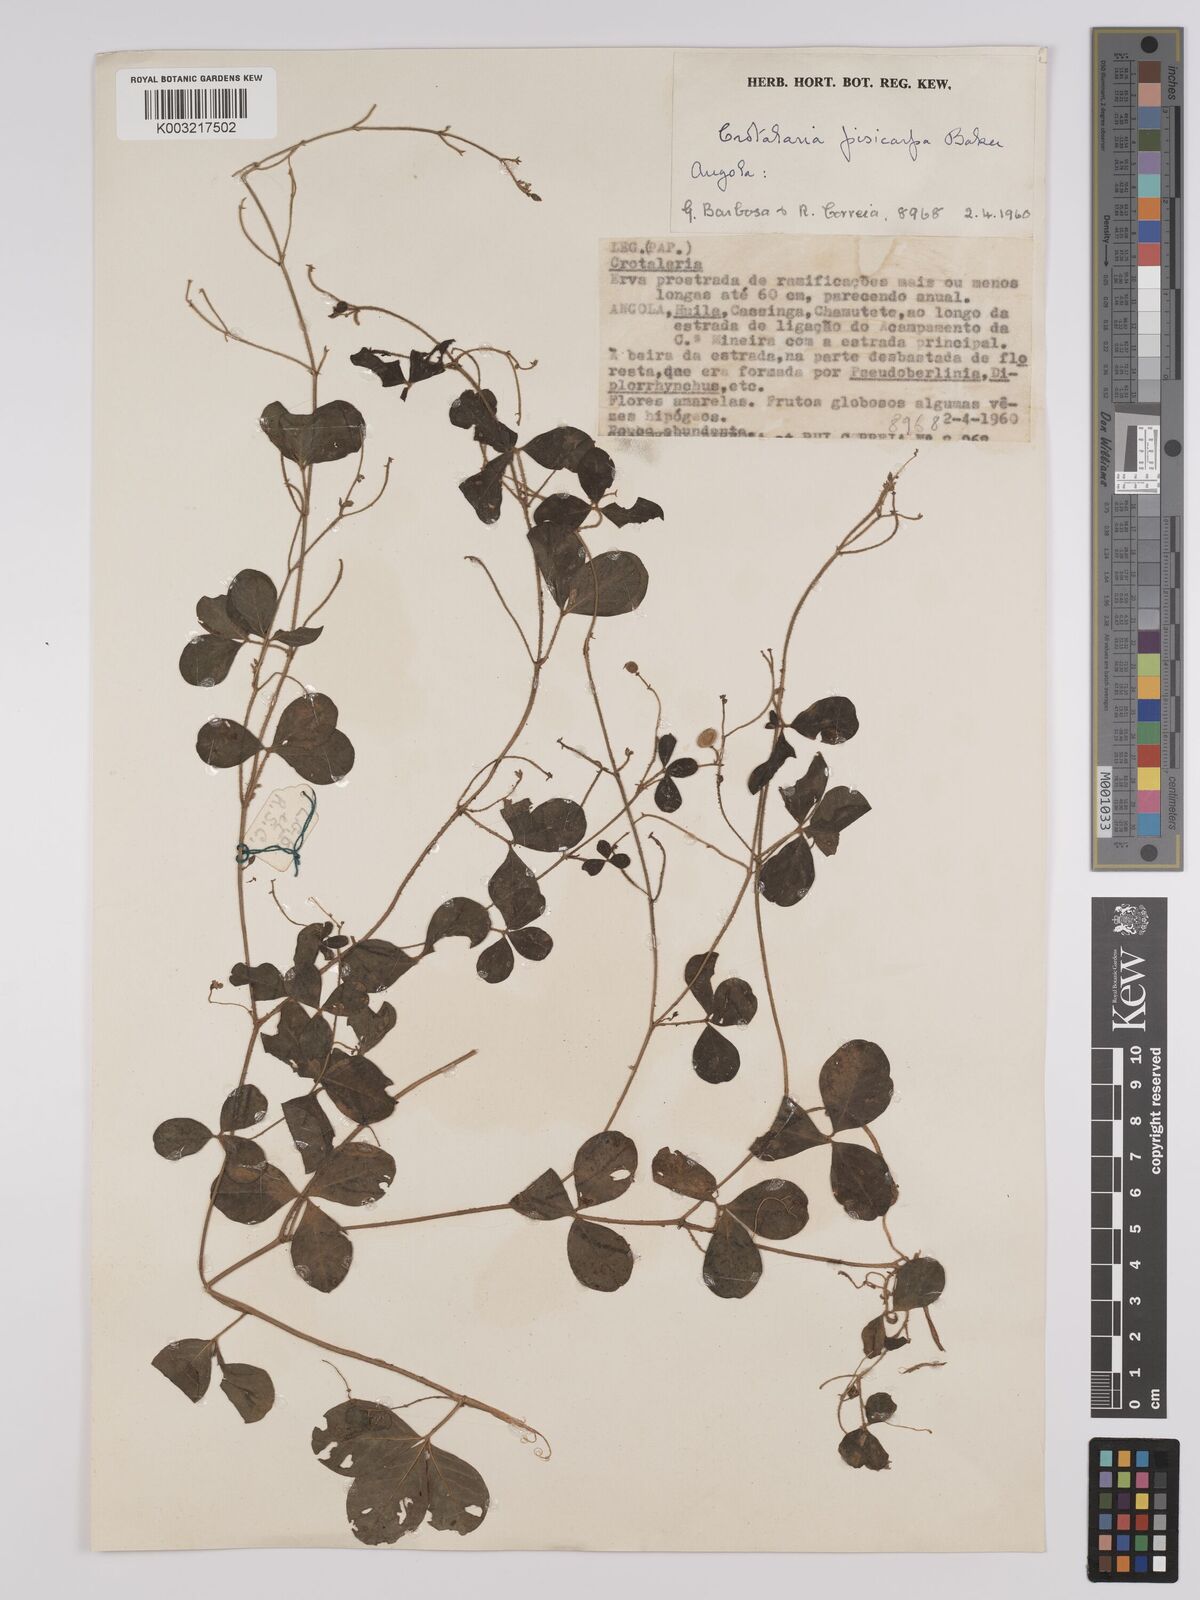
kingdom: Plantae
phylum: Tracheophyta
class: Magnoliopsida
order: Fabales
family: Fabaceae
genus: Crotalaria
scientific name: Crotalaria pisicarpa
